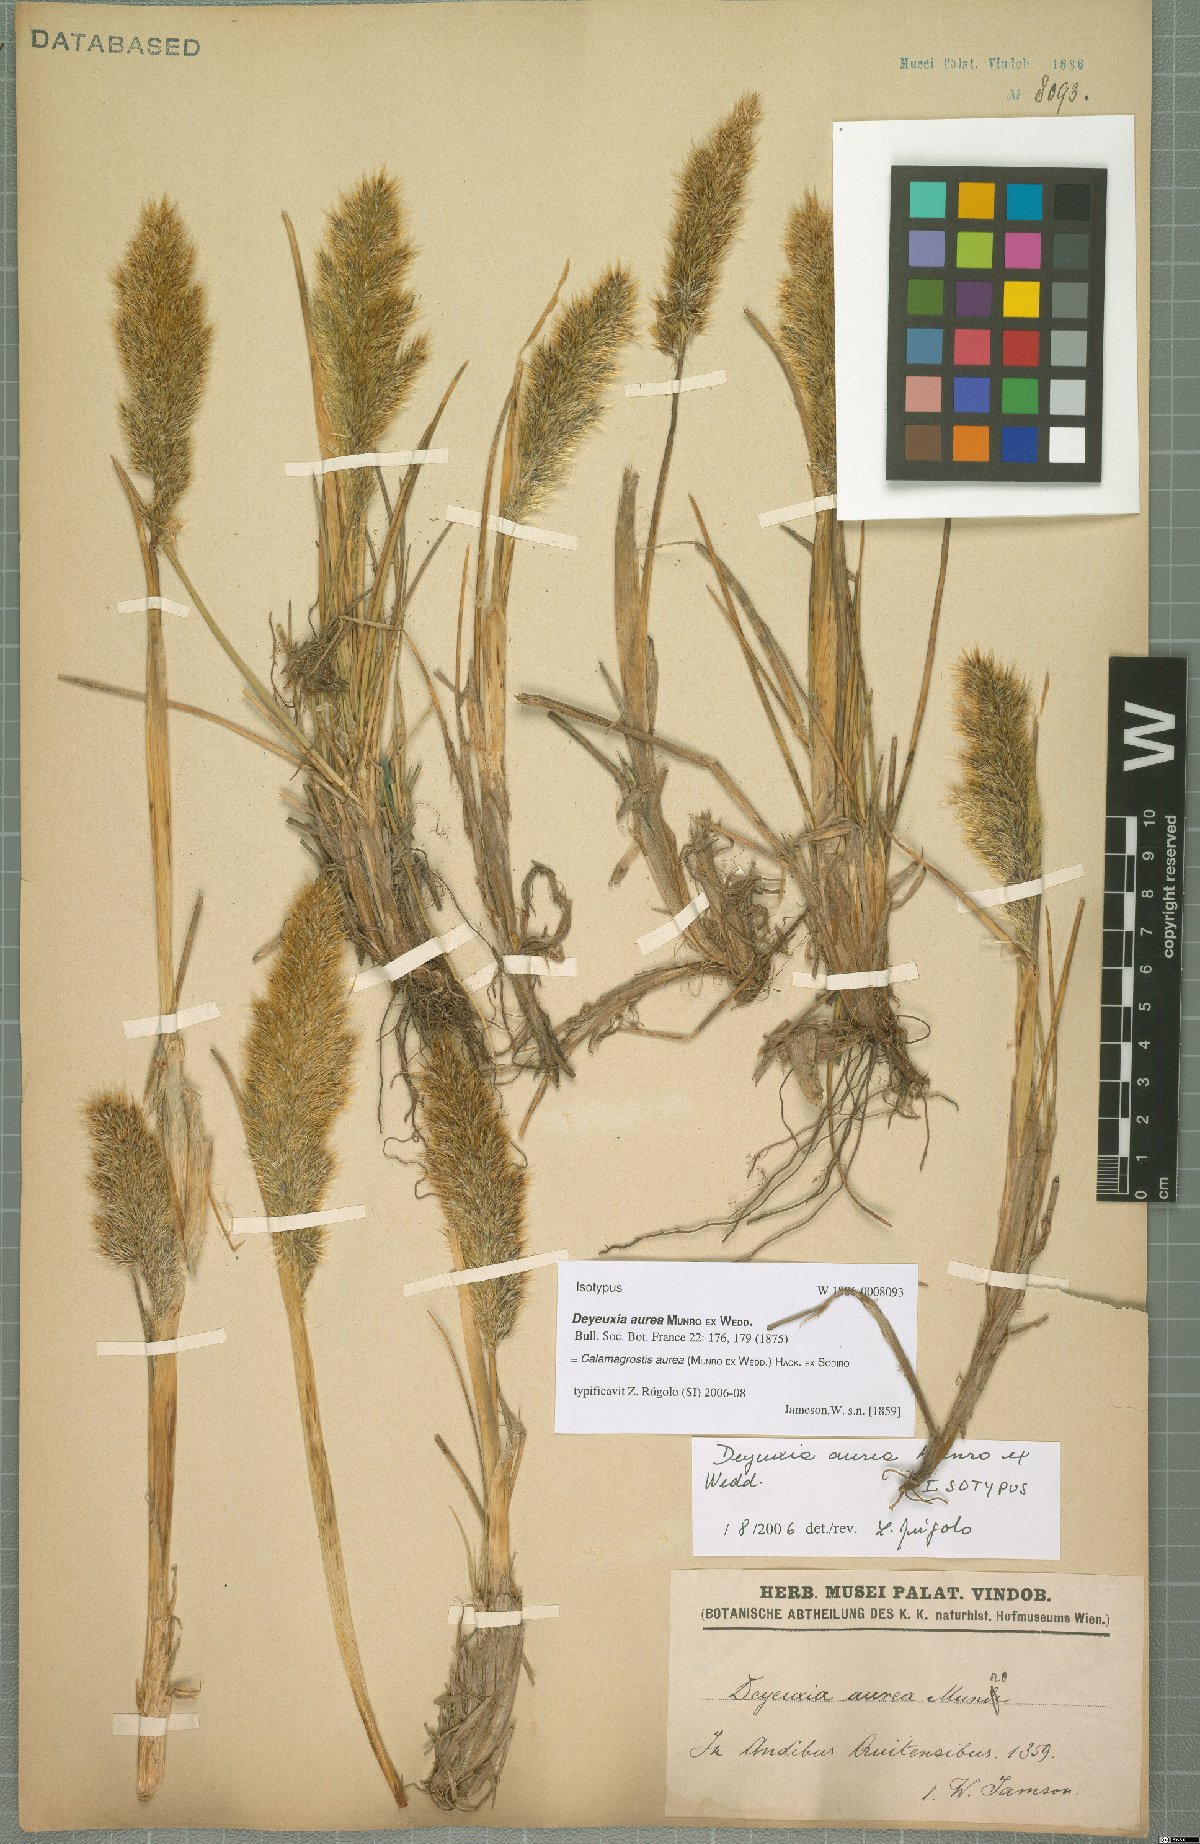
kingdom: Plantae
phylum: Tracheophyta
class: Liliopsida
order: Poales
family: Poaceae
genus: Deschampsia
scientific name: Deschampsia aurea
